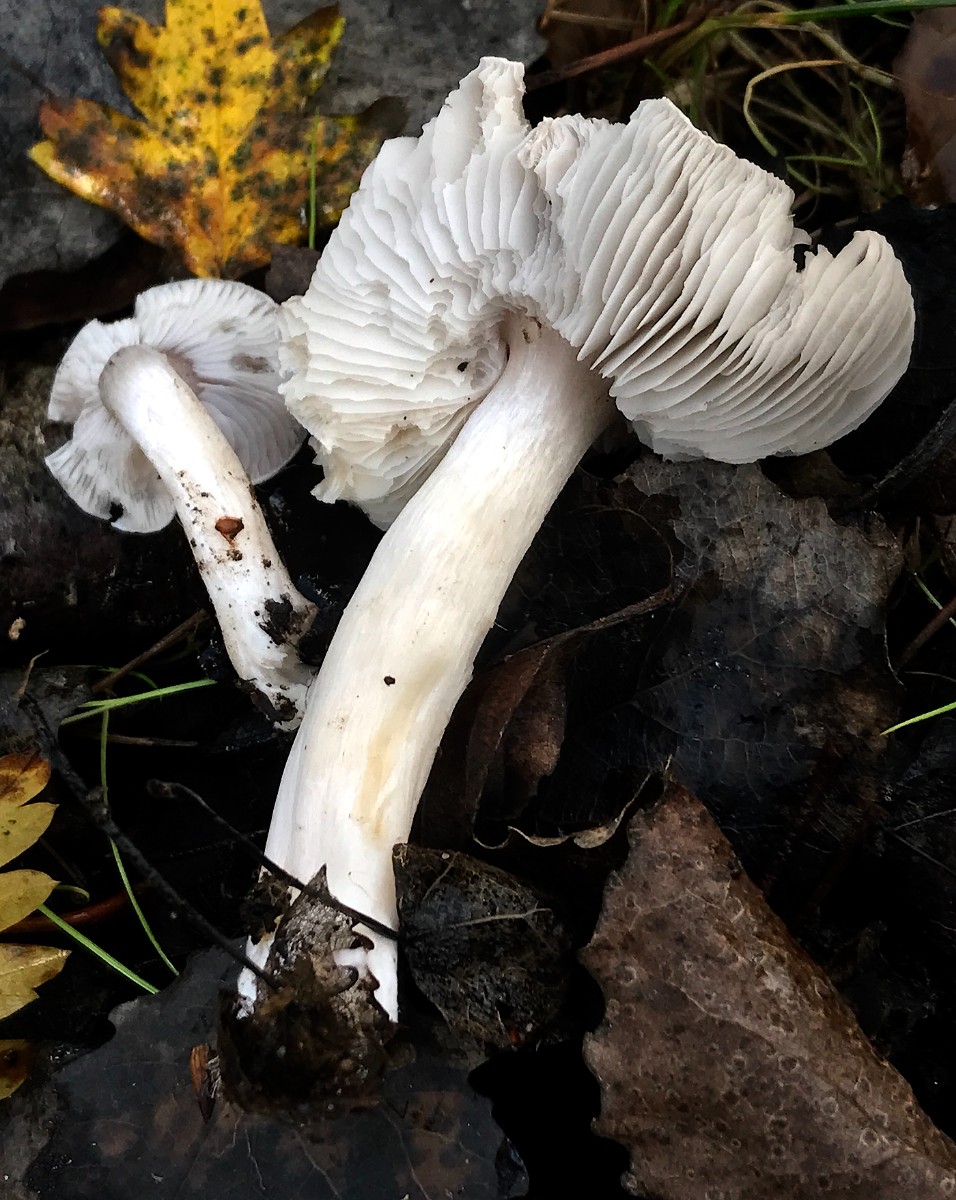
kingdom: Fungi
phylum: Basidiomycota
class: Agaricomycetes
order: Agaricales
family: Tricholomataceae
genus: Tricholoma
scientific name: Tricholoma scalpturatum
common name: gulplettet ridderhat
